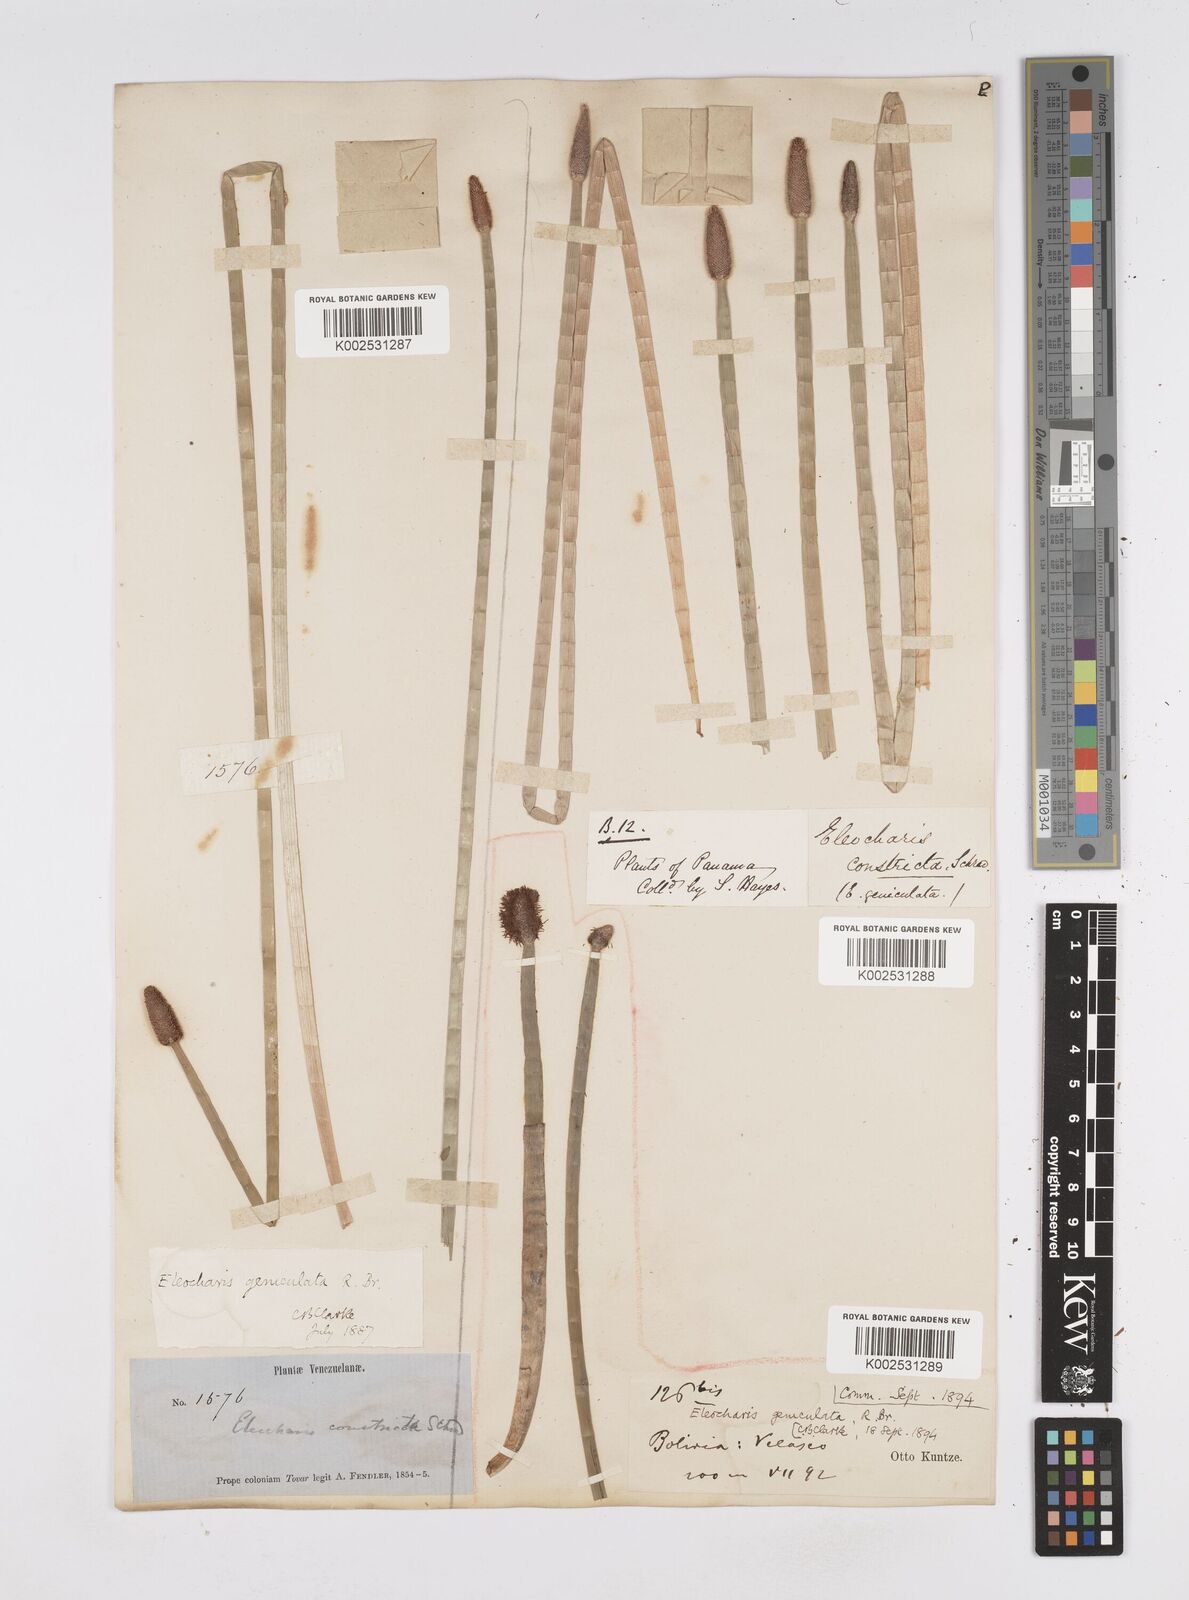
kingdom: Plantae
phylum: Tracheophyta
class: Liliopsida
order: Poales
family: Cyperaceae
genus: Eleocharis
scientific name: Eleocharis elegans
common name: Elegant spike-rush
